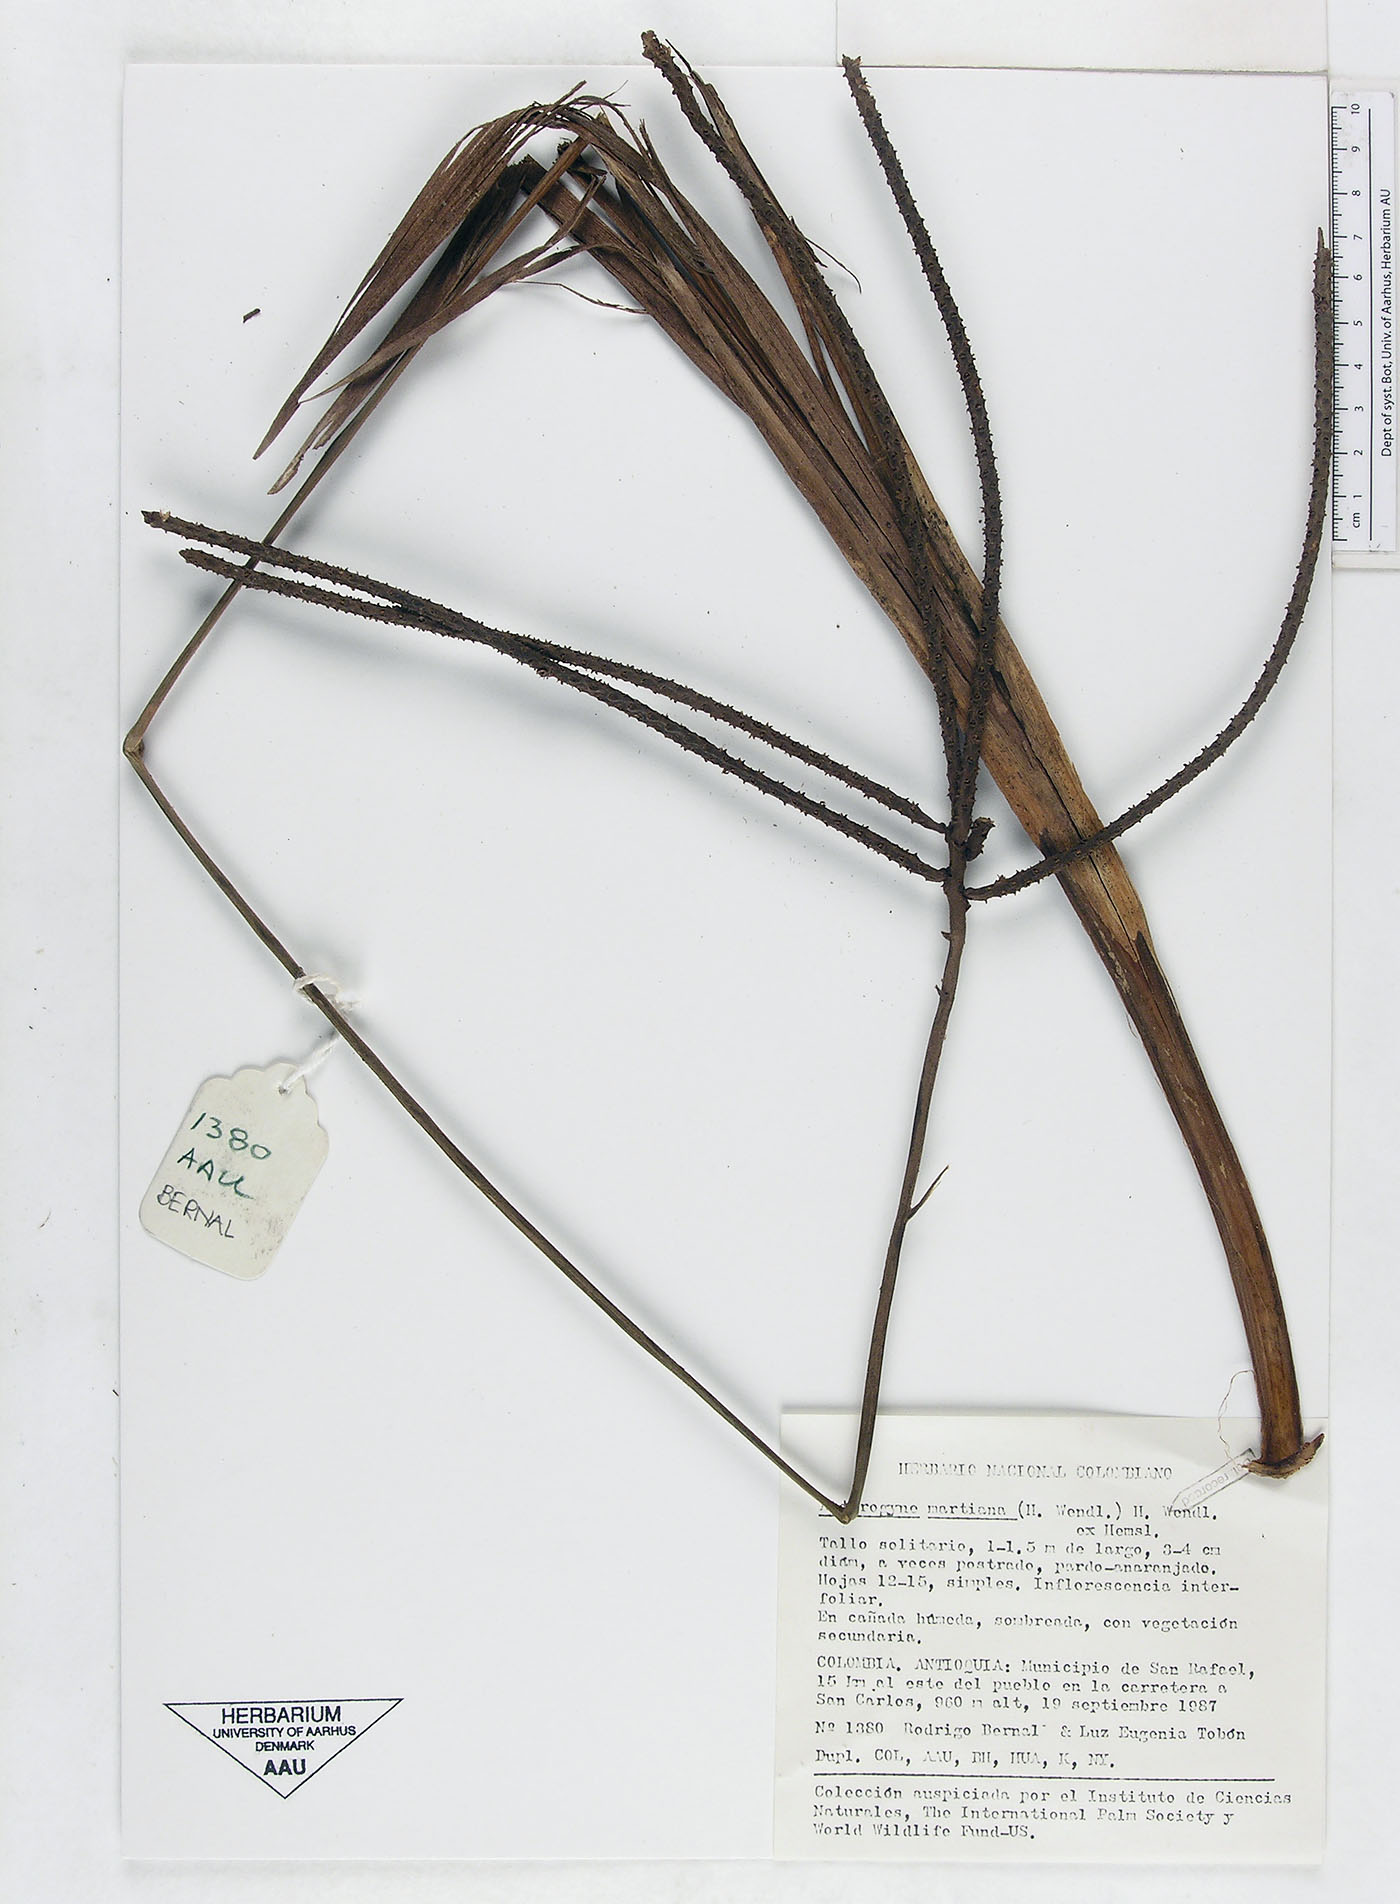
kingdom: Plantae
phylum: Tracheophyta
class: Liliopsida
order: Arecales
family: Arecaceae
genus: Asterogyne
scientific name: Asterogyne martiana
